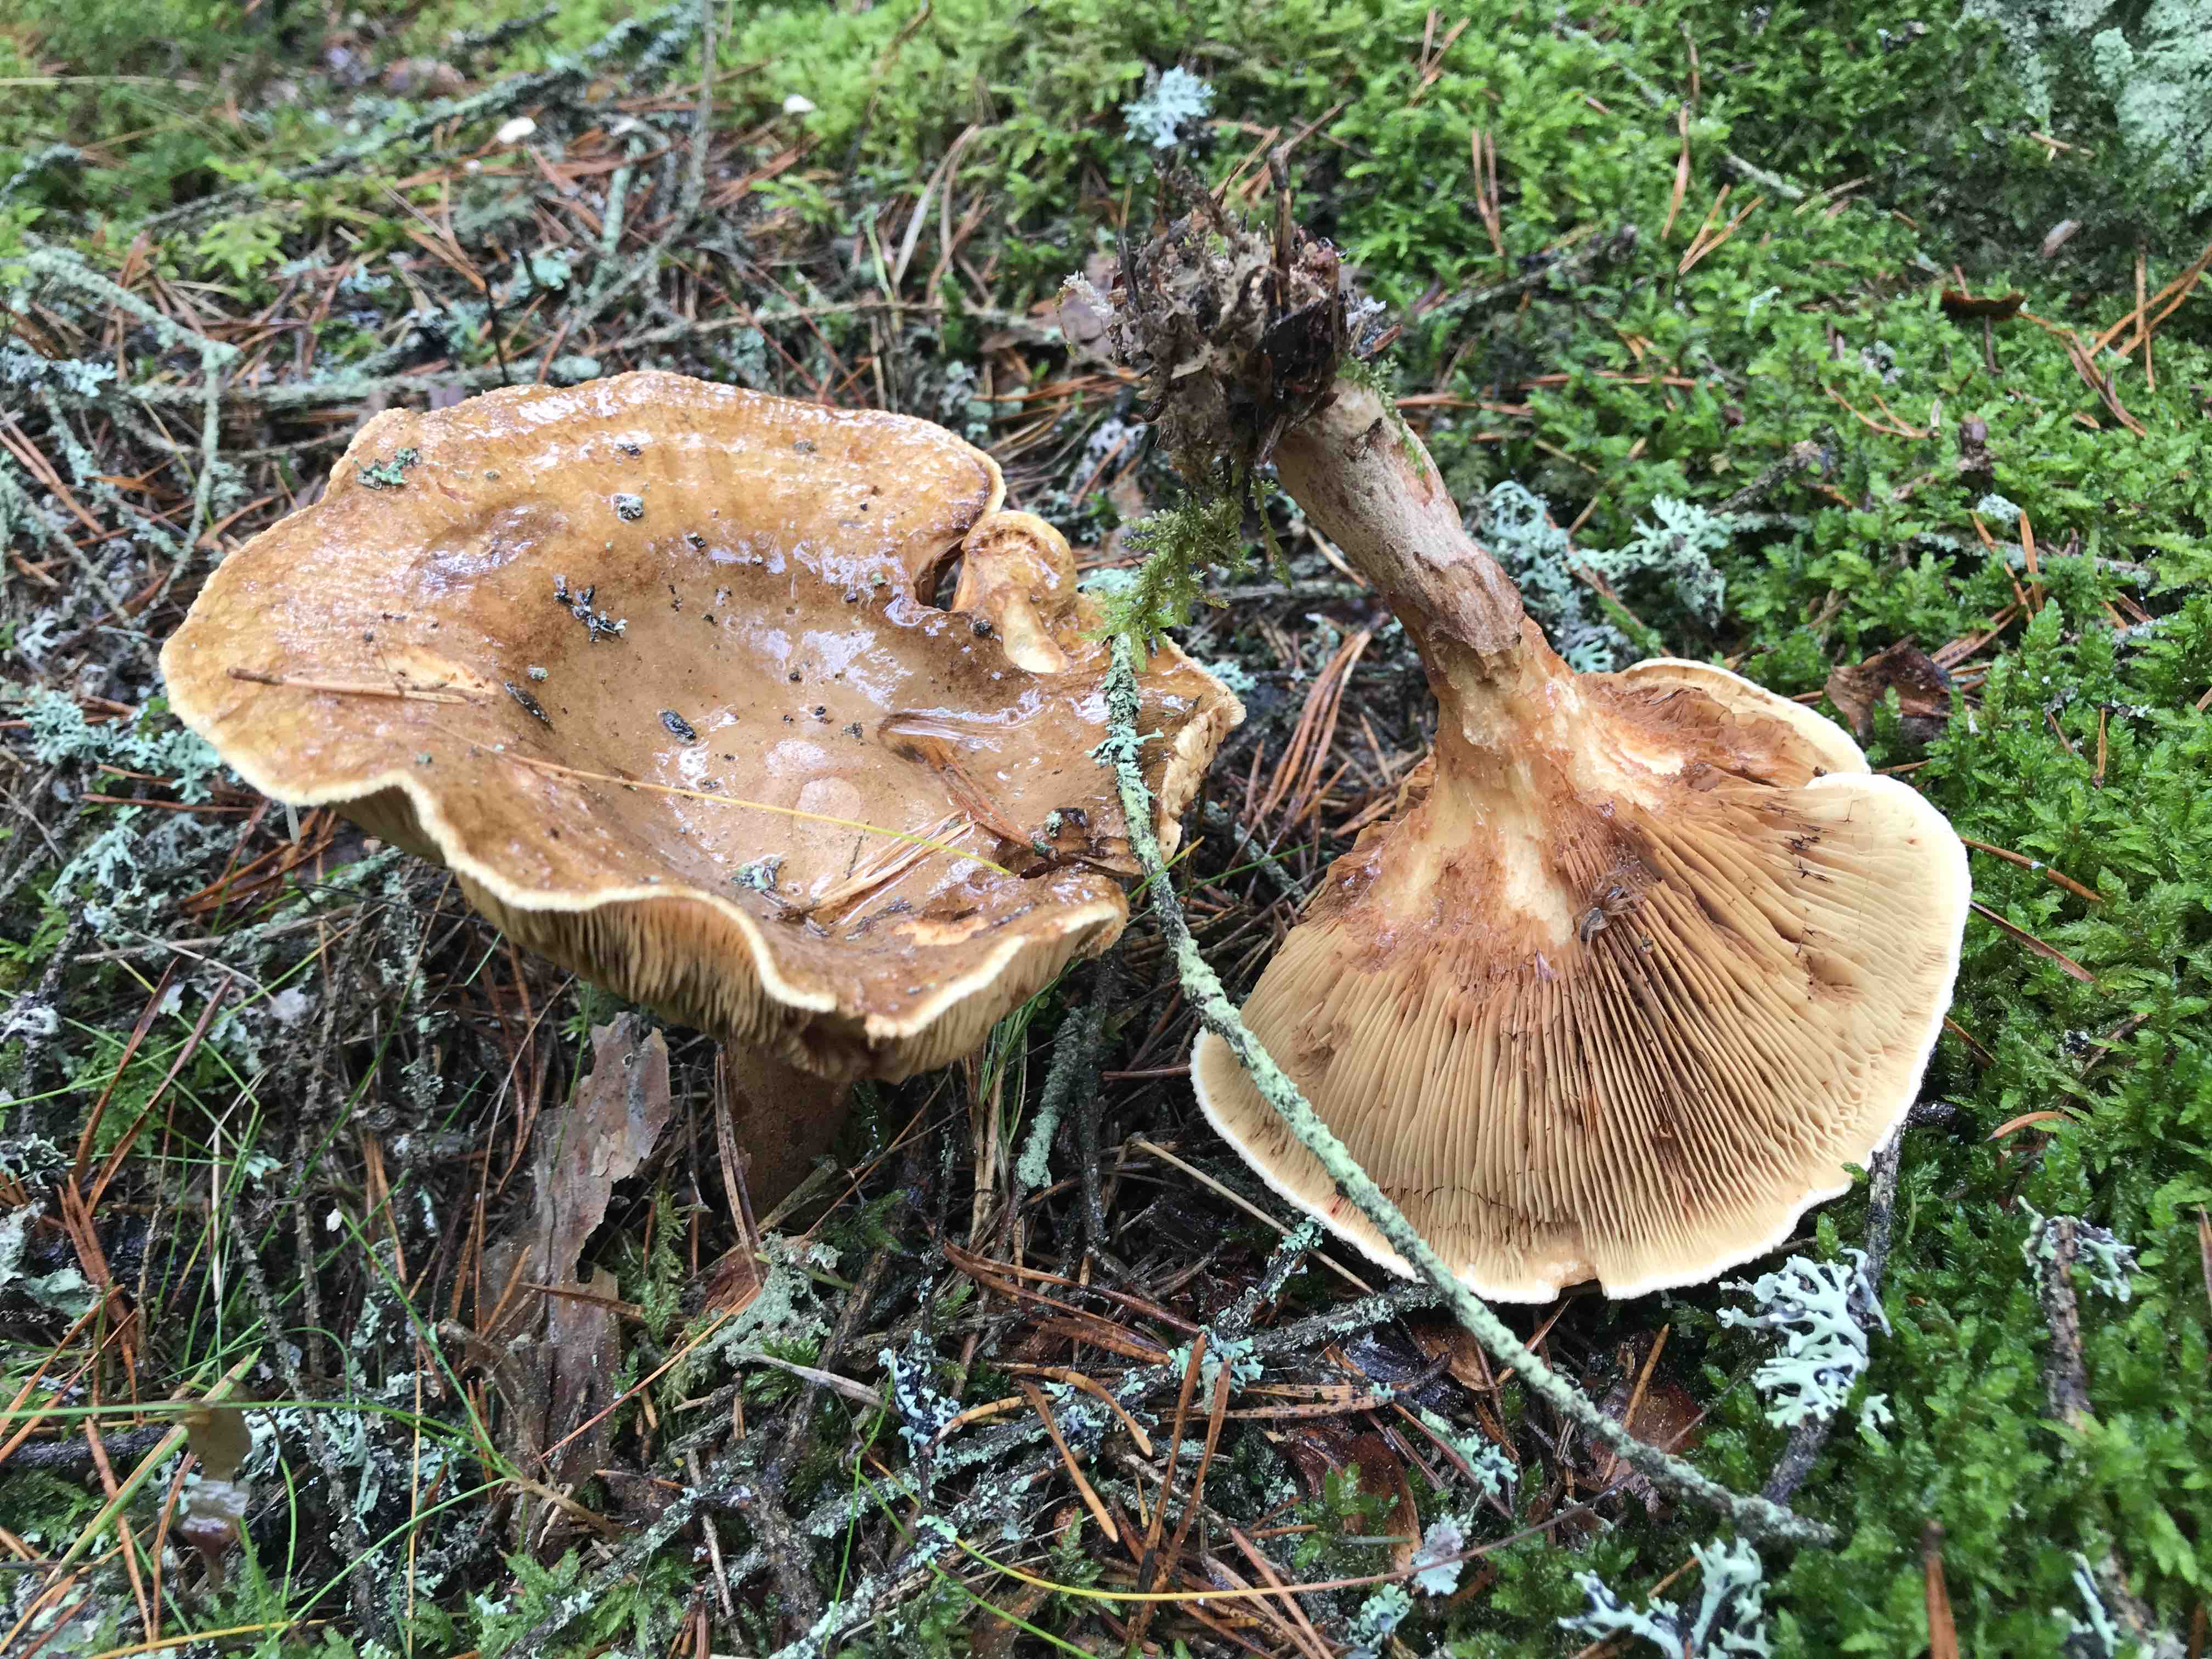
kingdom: Fungi
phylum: Basidiomycota
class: Agaricomycetes
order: Boletales
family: Paxillaceae
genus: Paxillus
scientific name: Paxillus involutus
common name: almindelig netbladhat
